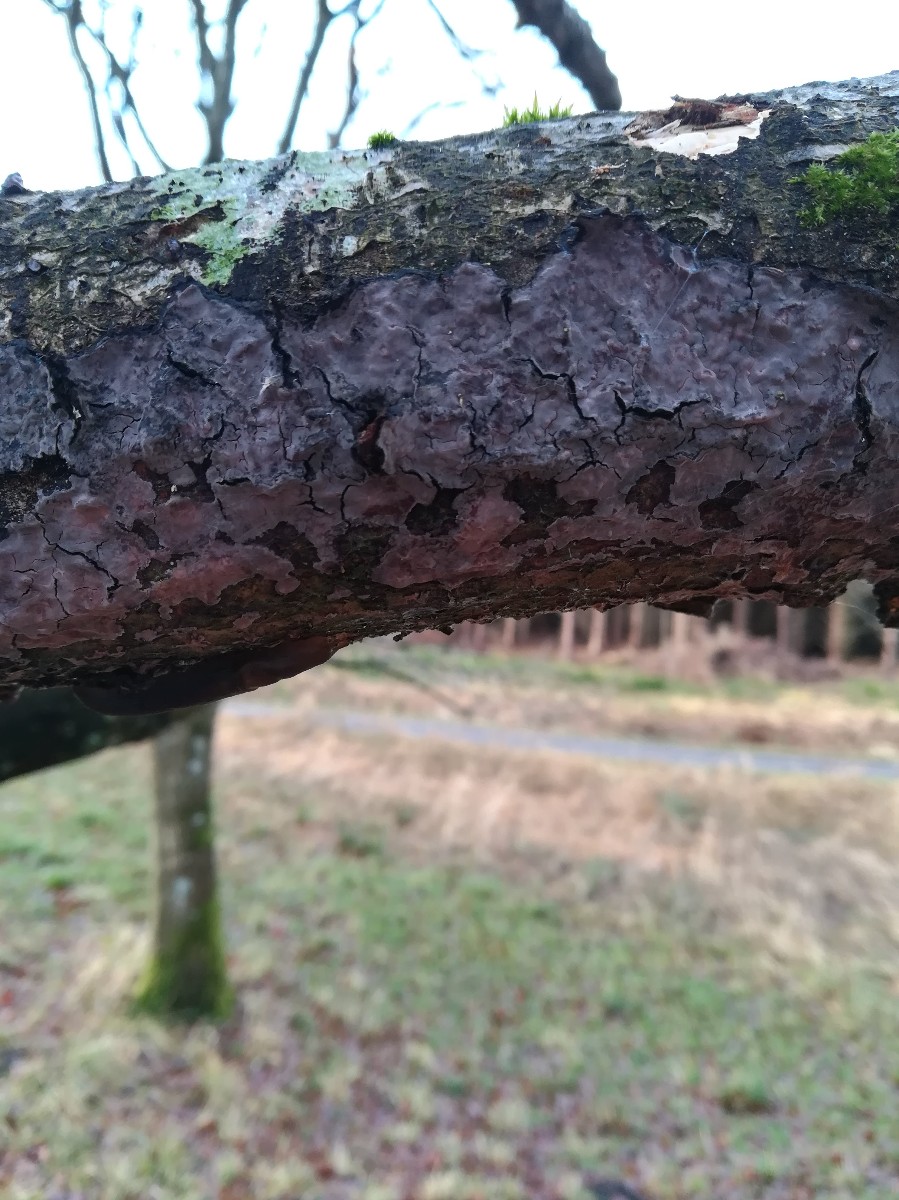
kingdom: Fungi
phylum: Basidiomycota
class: Agaricomycetes
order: Russulales
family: Peniophoraceae
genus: Peniophora
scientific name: Peniophora quercina
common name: ege-voksskind
